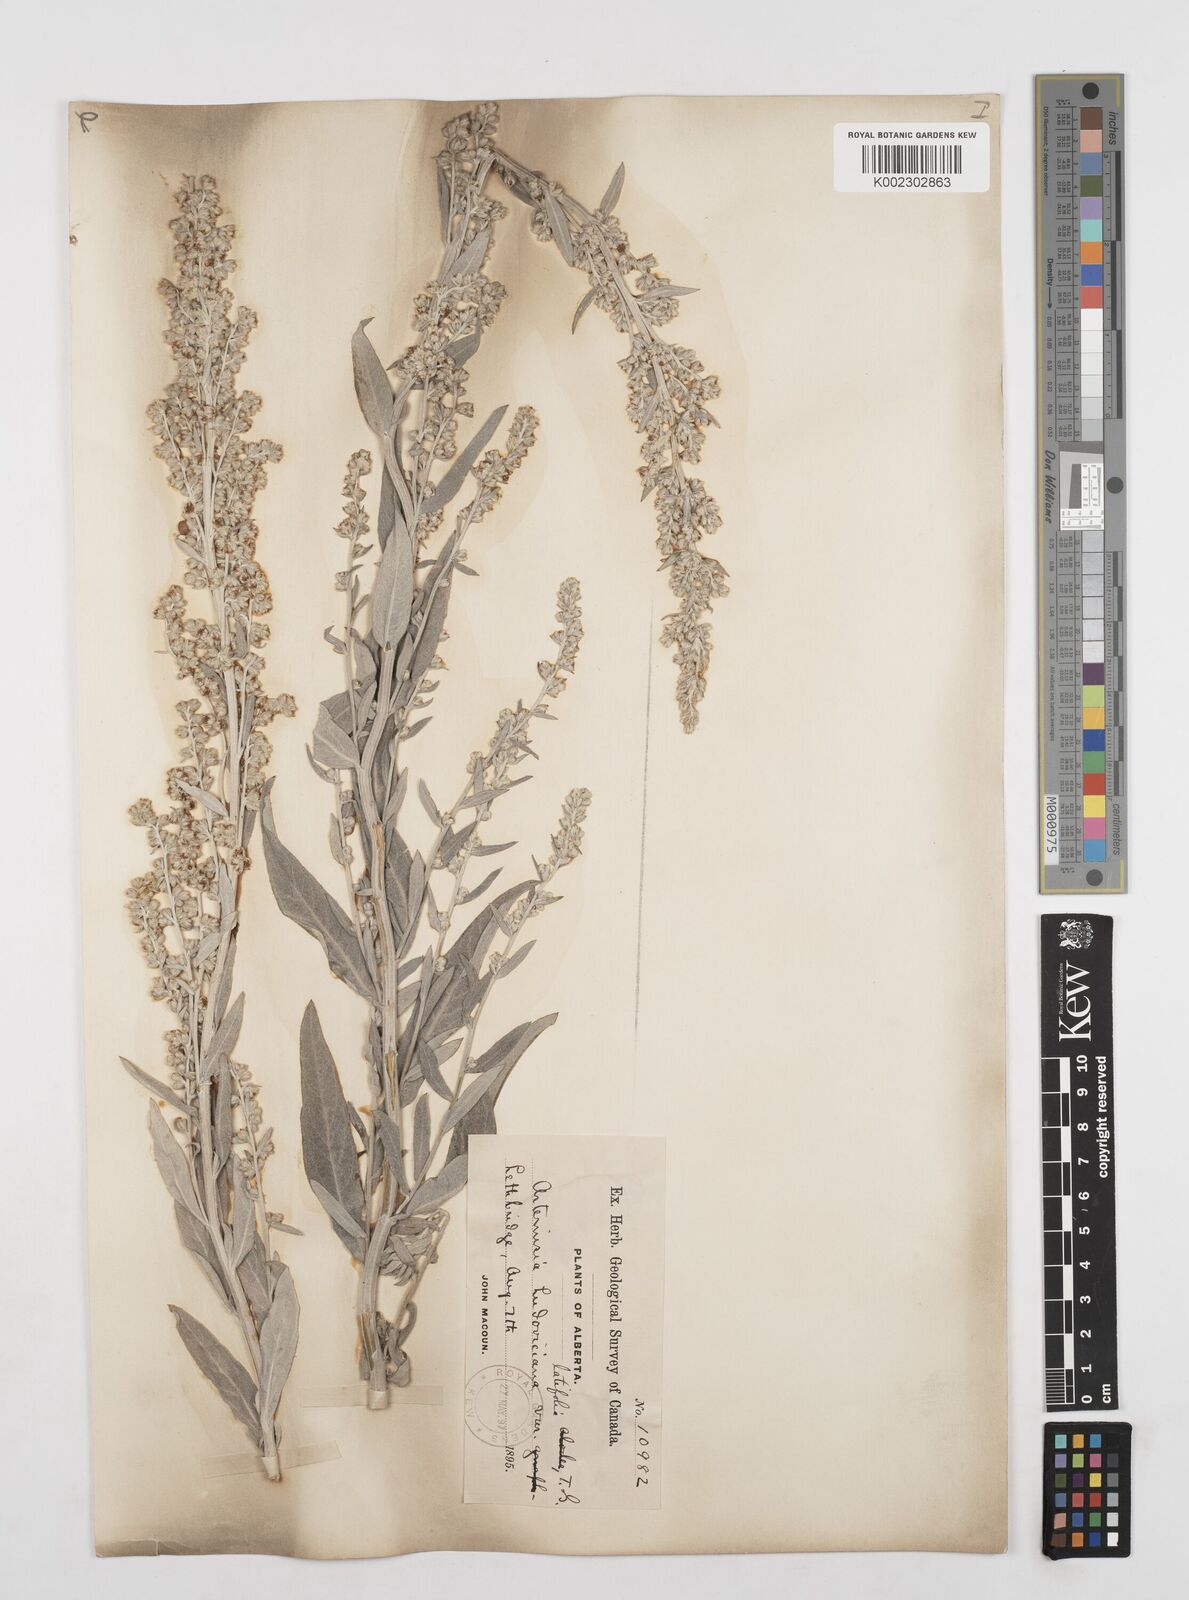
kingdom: Plantae
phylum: Tracheophyta
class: Magnoliopsida
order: Asterales
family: Asteraceae
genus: Artemisia
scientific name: Artemisia
